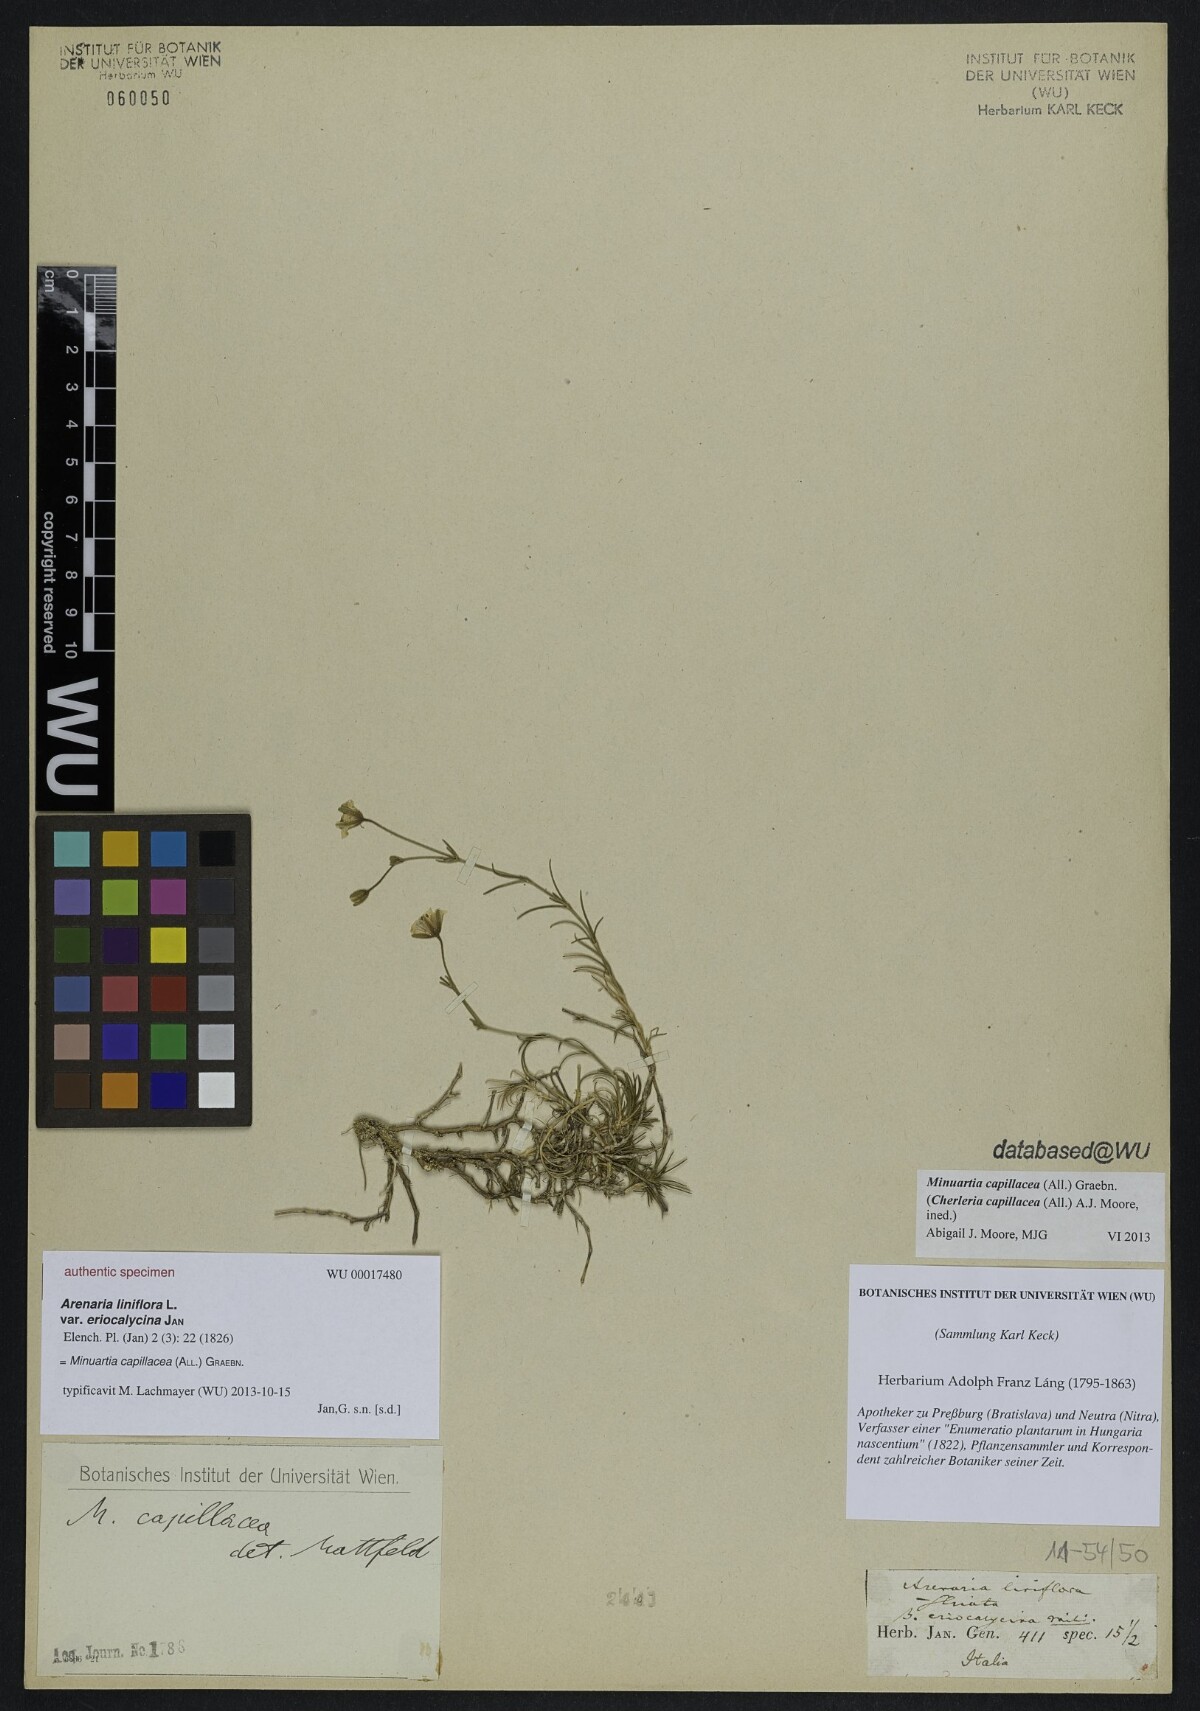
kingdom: Plantae
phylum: Tracheophyta
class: Magnoliopsida
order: Caryophyllales
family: Caryophyllaceae
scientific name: Caryophyllaceae
